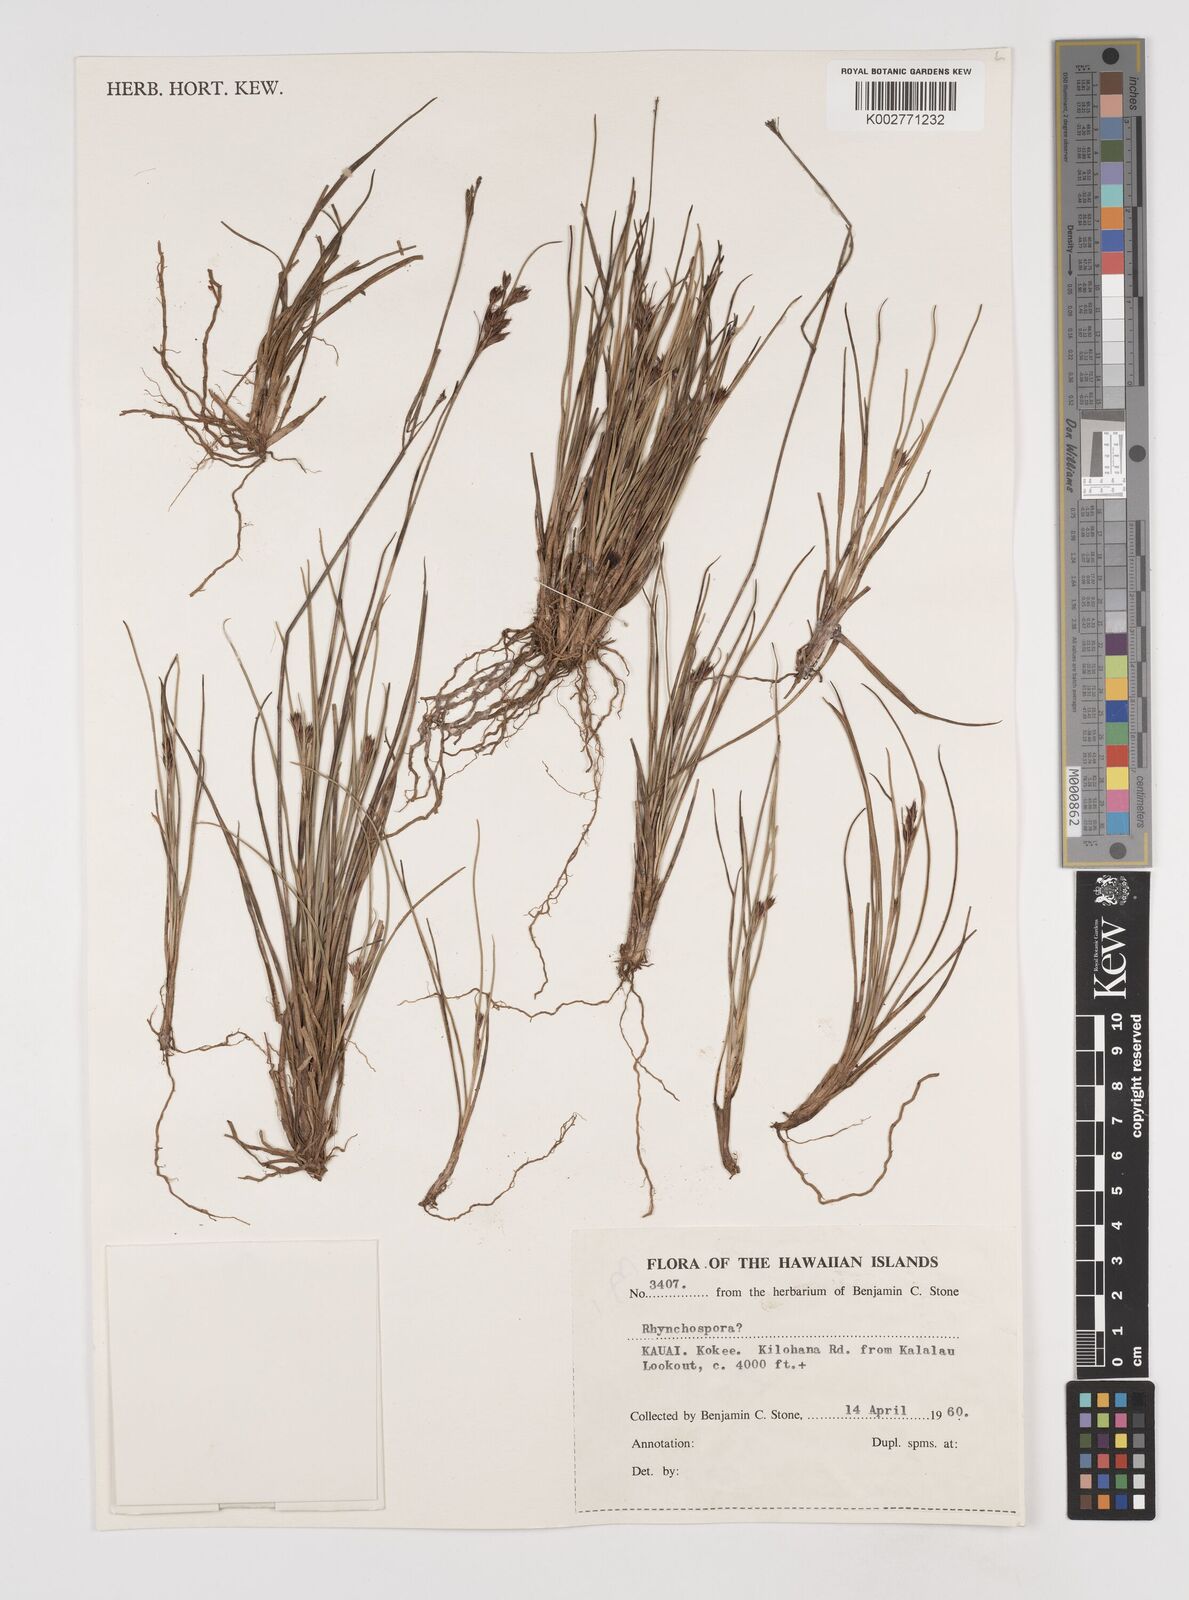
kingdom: Plantae
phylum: Tracheophyta
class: Liliopsida
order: Poales
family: Cyperaceae
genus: Rhynchospora
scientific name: Rhynchospora
